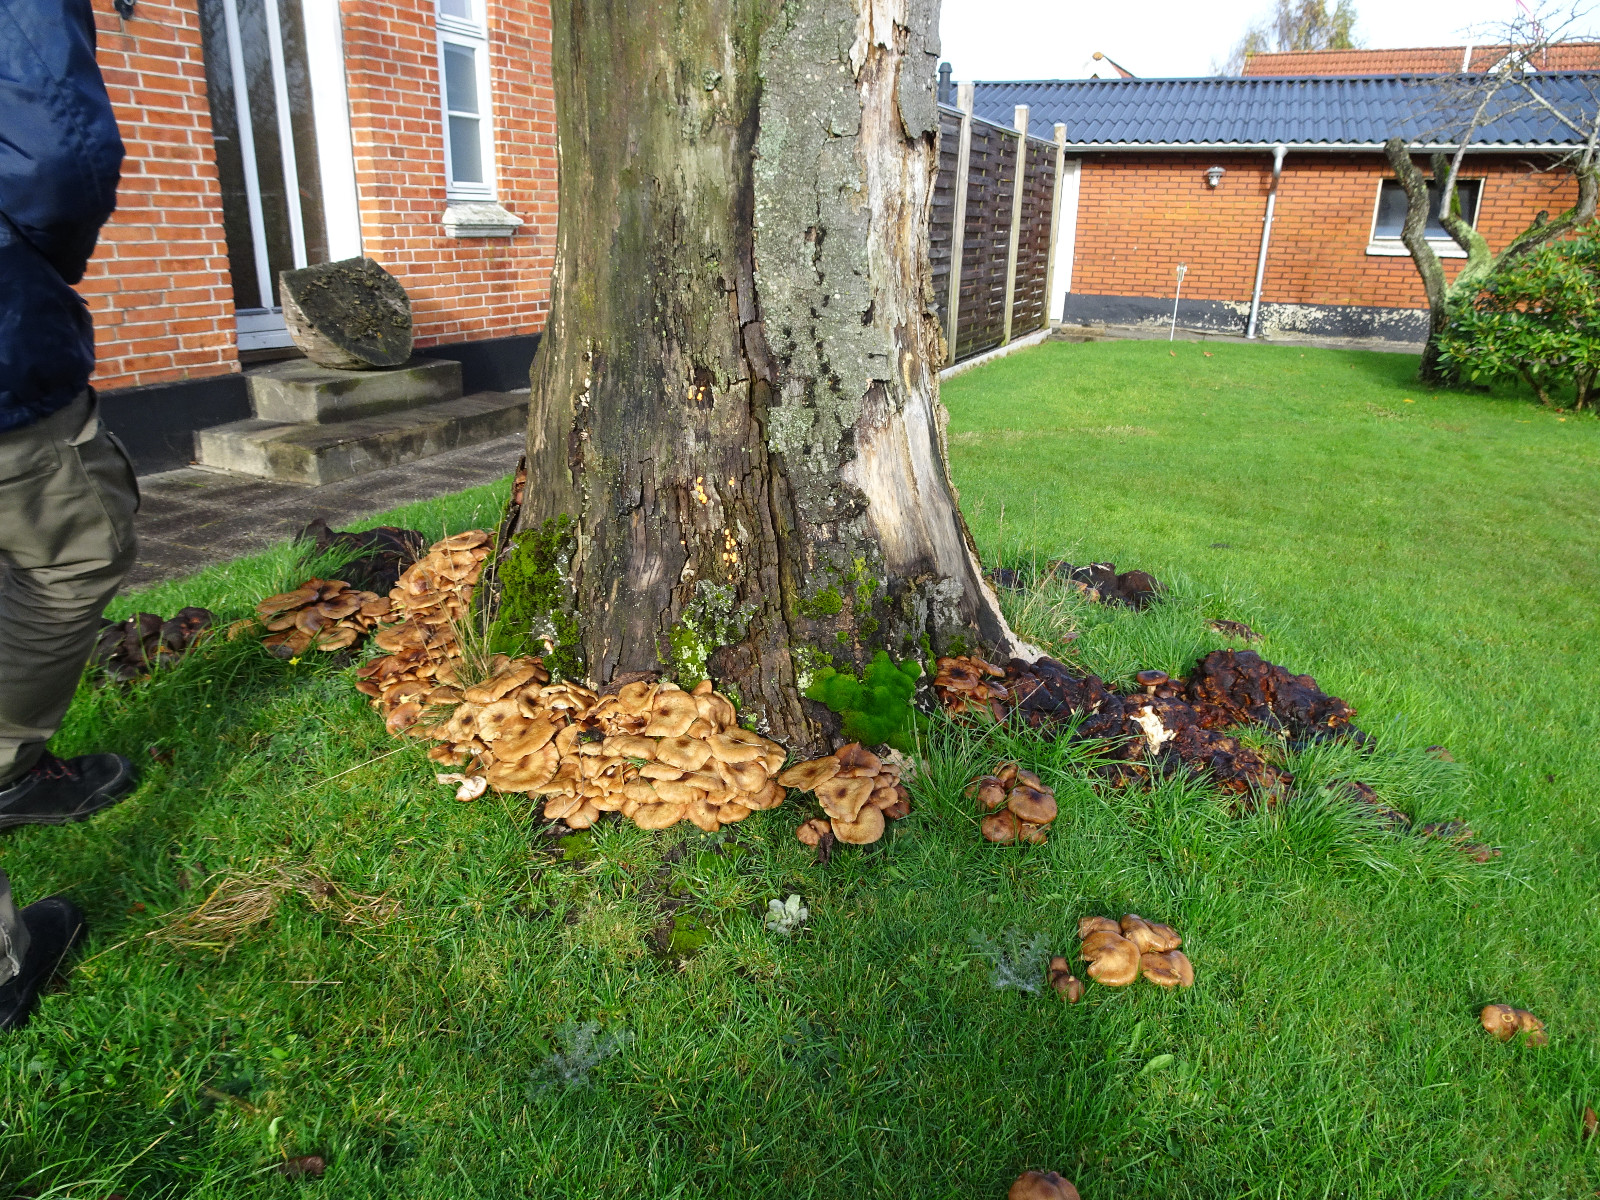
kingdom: Fungi
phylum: Basidiomycota
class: Agaricomycetes
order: Agaricales
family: Physalacriaceae
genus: Armillaria
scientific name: Armillaria
